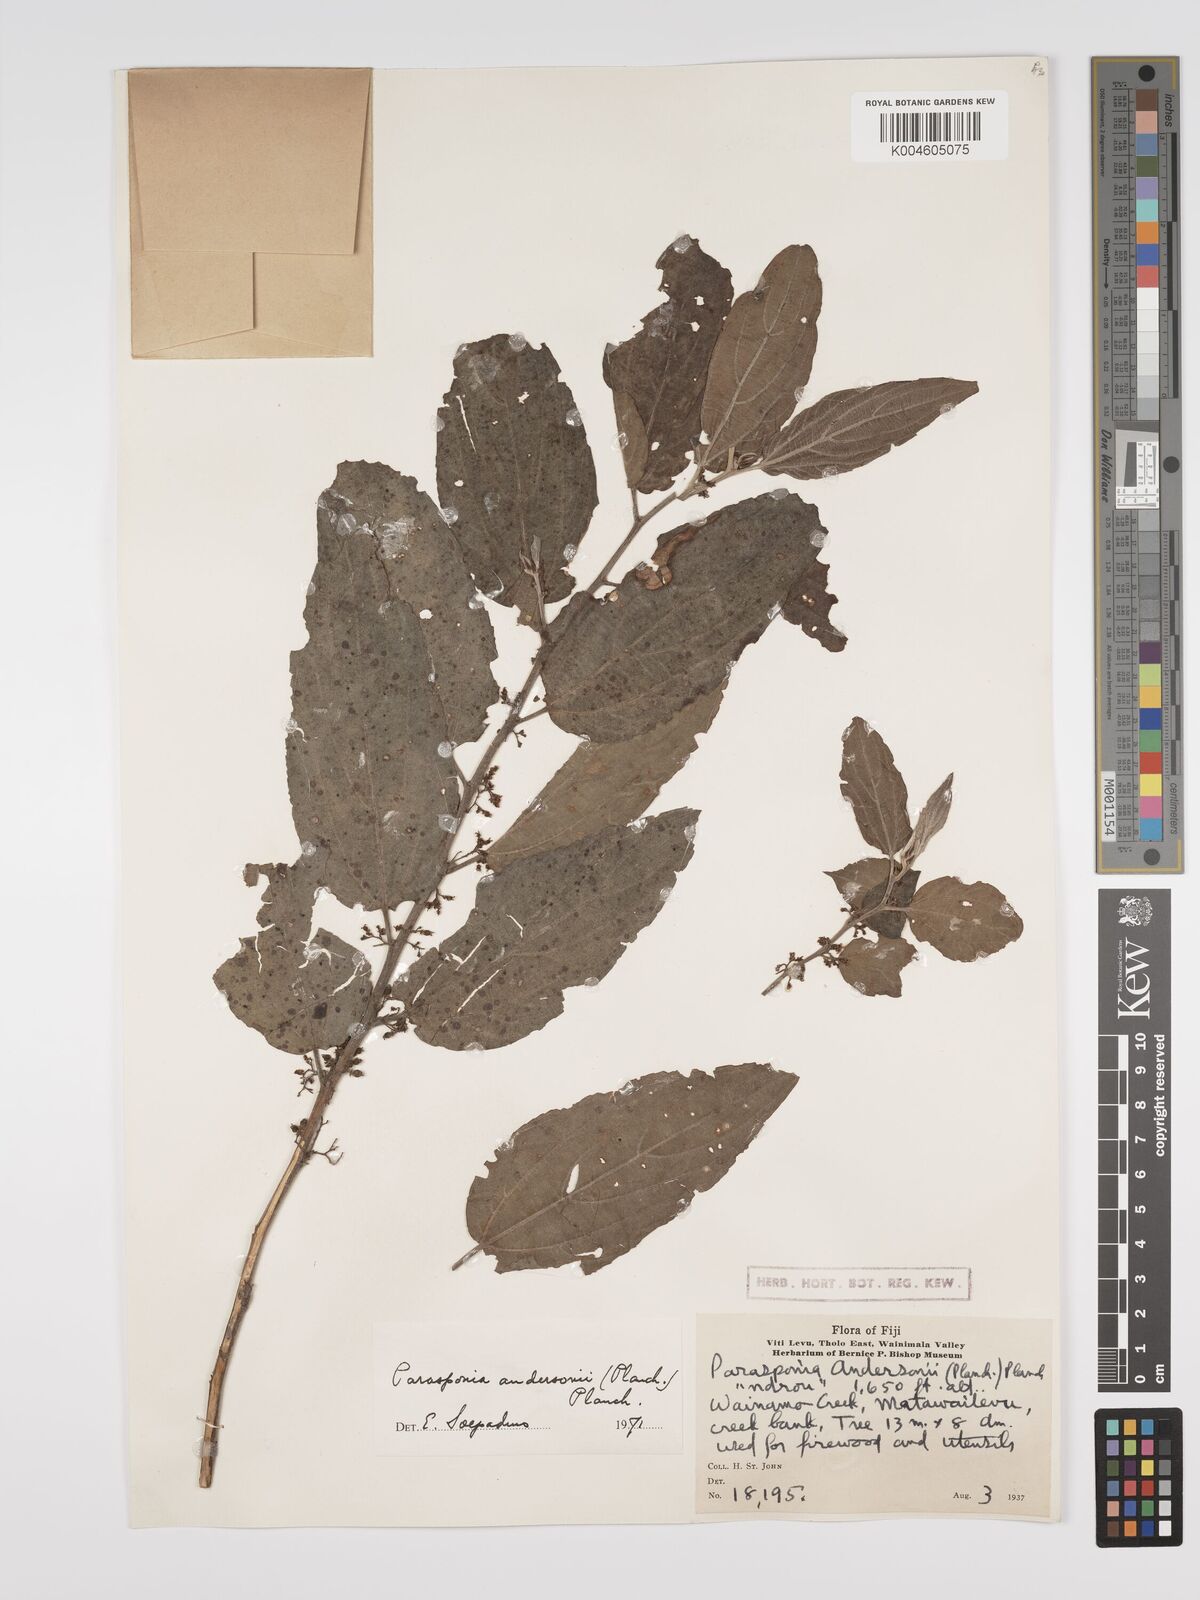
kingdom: Plantae
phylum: Tracheophyta
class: Magnoliopsida
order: Rosales
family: Cannabaceae
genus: Trema
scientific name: Trema andersonii
